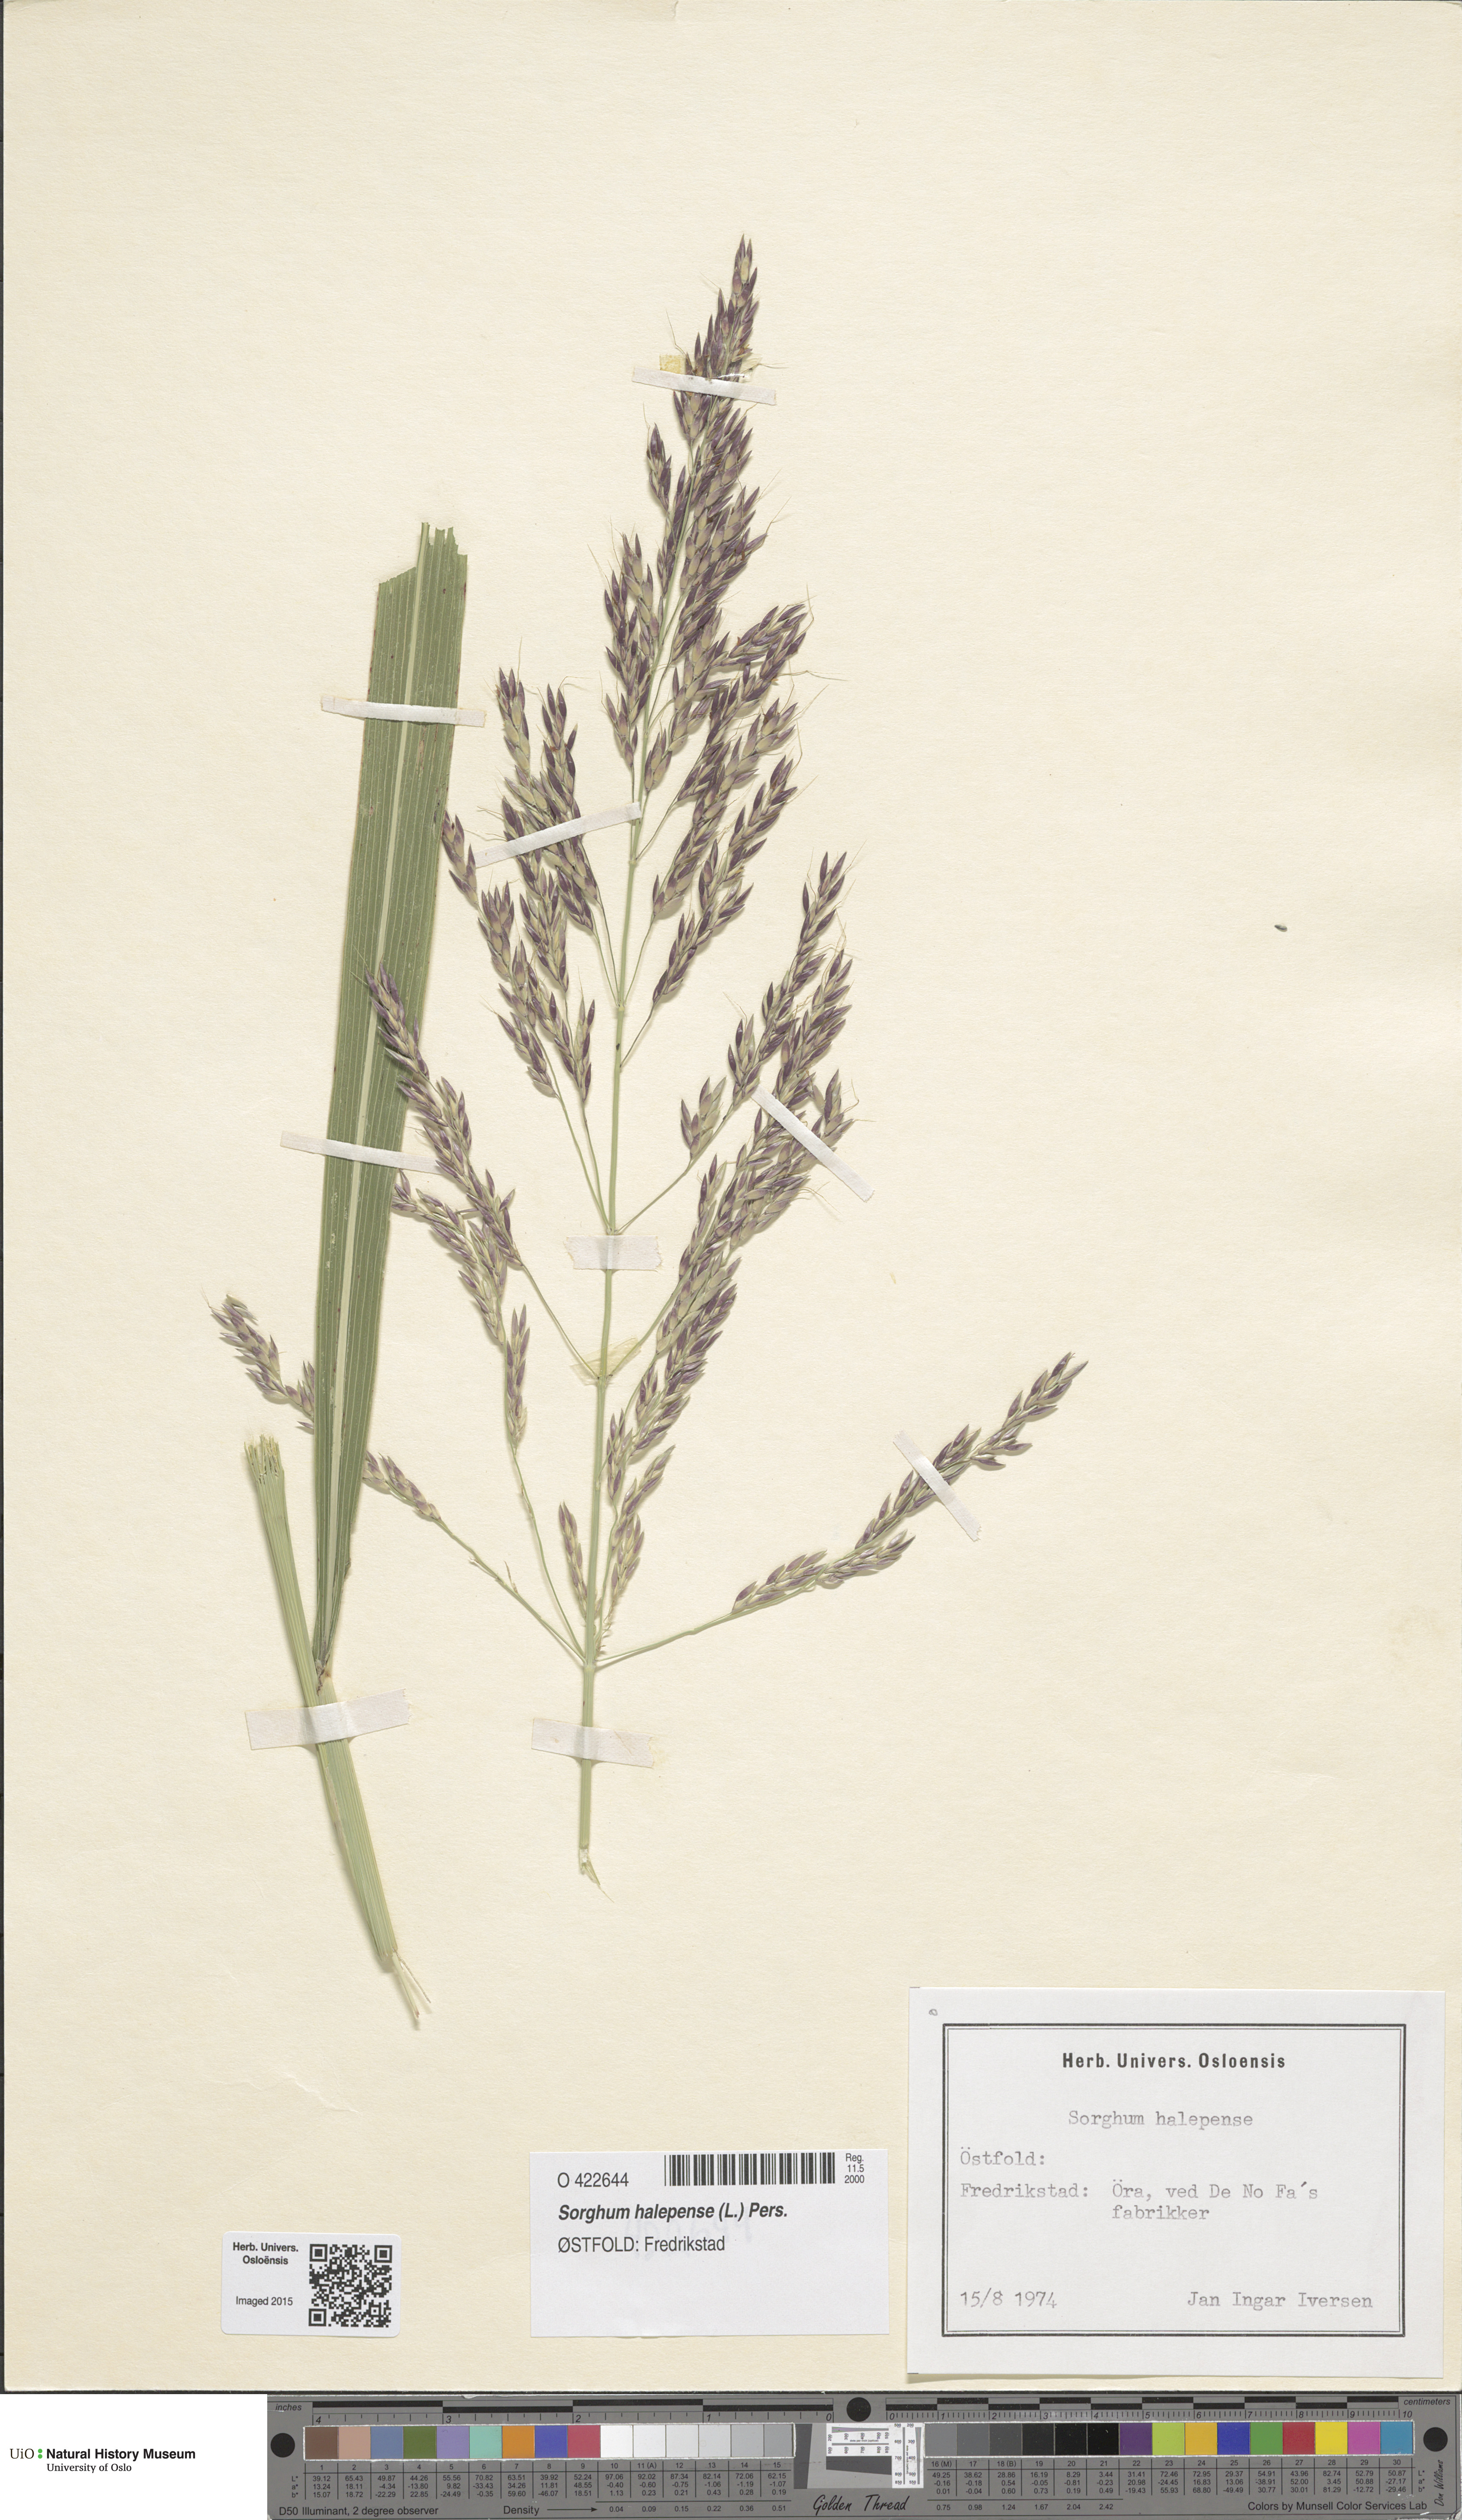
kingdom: Plantae
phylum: Tracheophyta
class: Liliopsida
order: Poales
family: Poaceae
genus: Sorghum
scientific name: Sorghum halepense
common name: Johnson-grass
